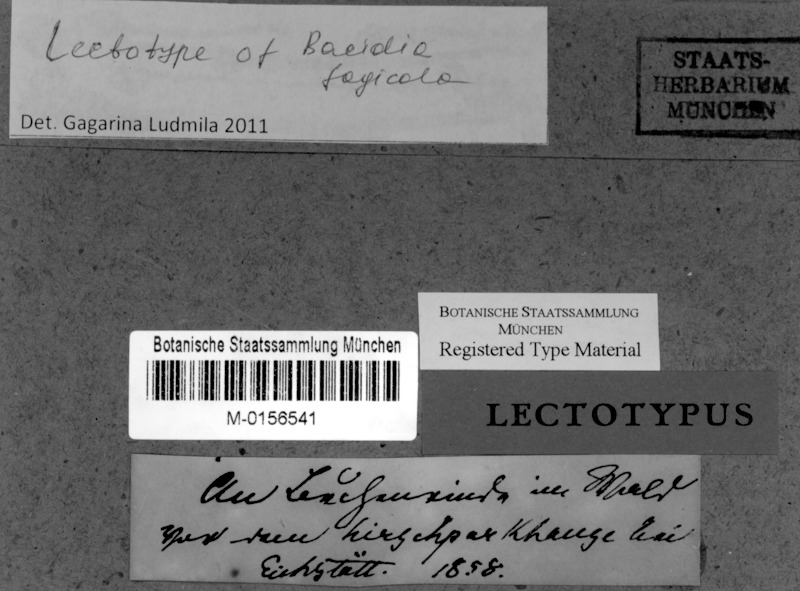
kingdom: Fungi
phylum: Ascomycota
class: Lecanoromycetes
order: Gyalectales
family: Gyalectaceae
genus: Pachyphiale
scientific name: Pachyphiale fagicola
